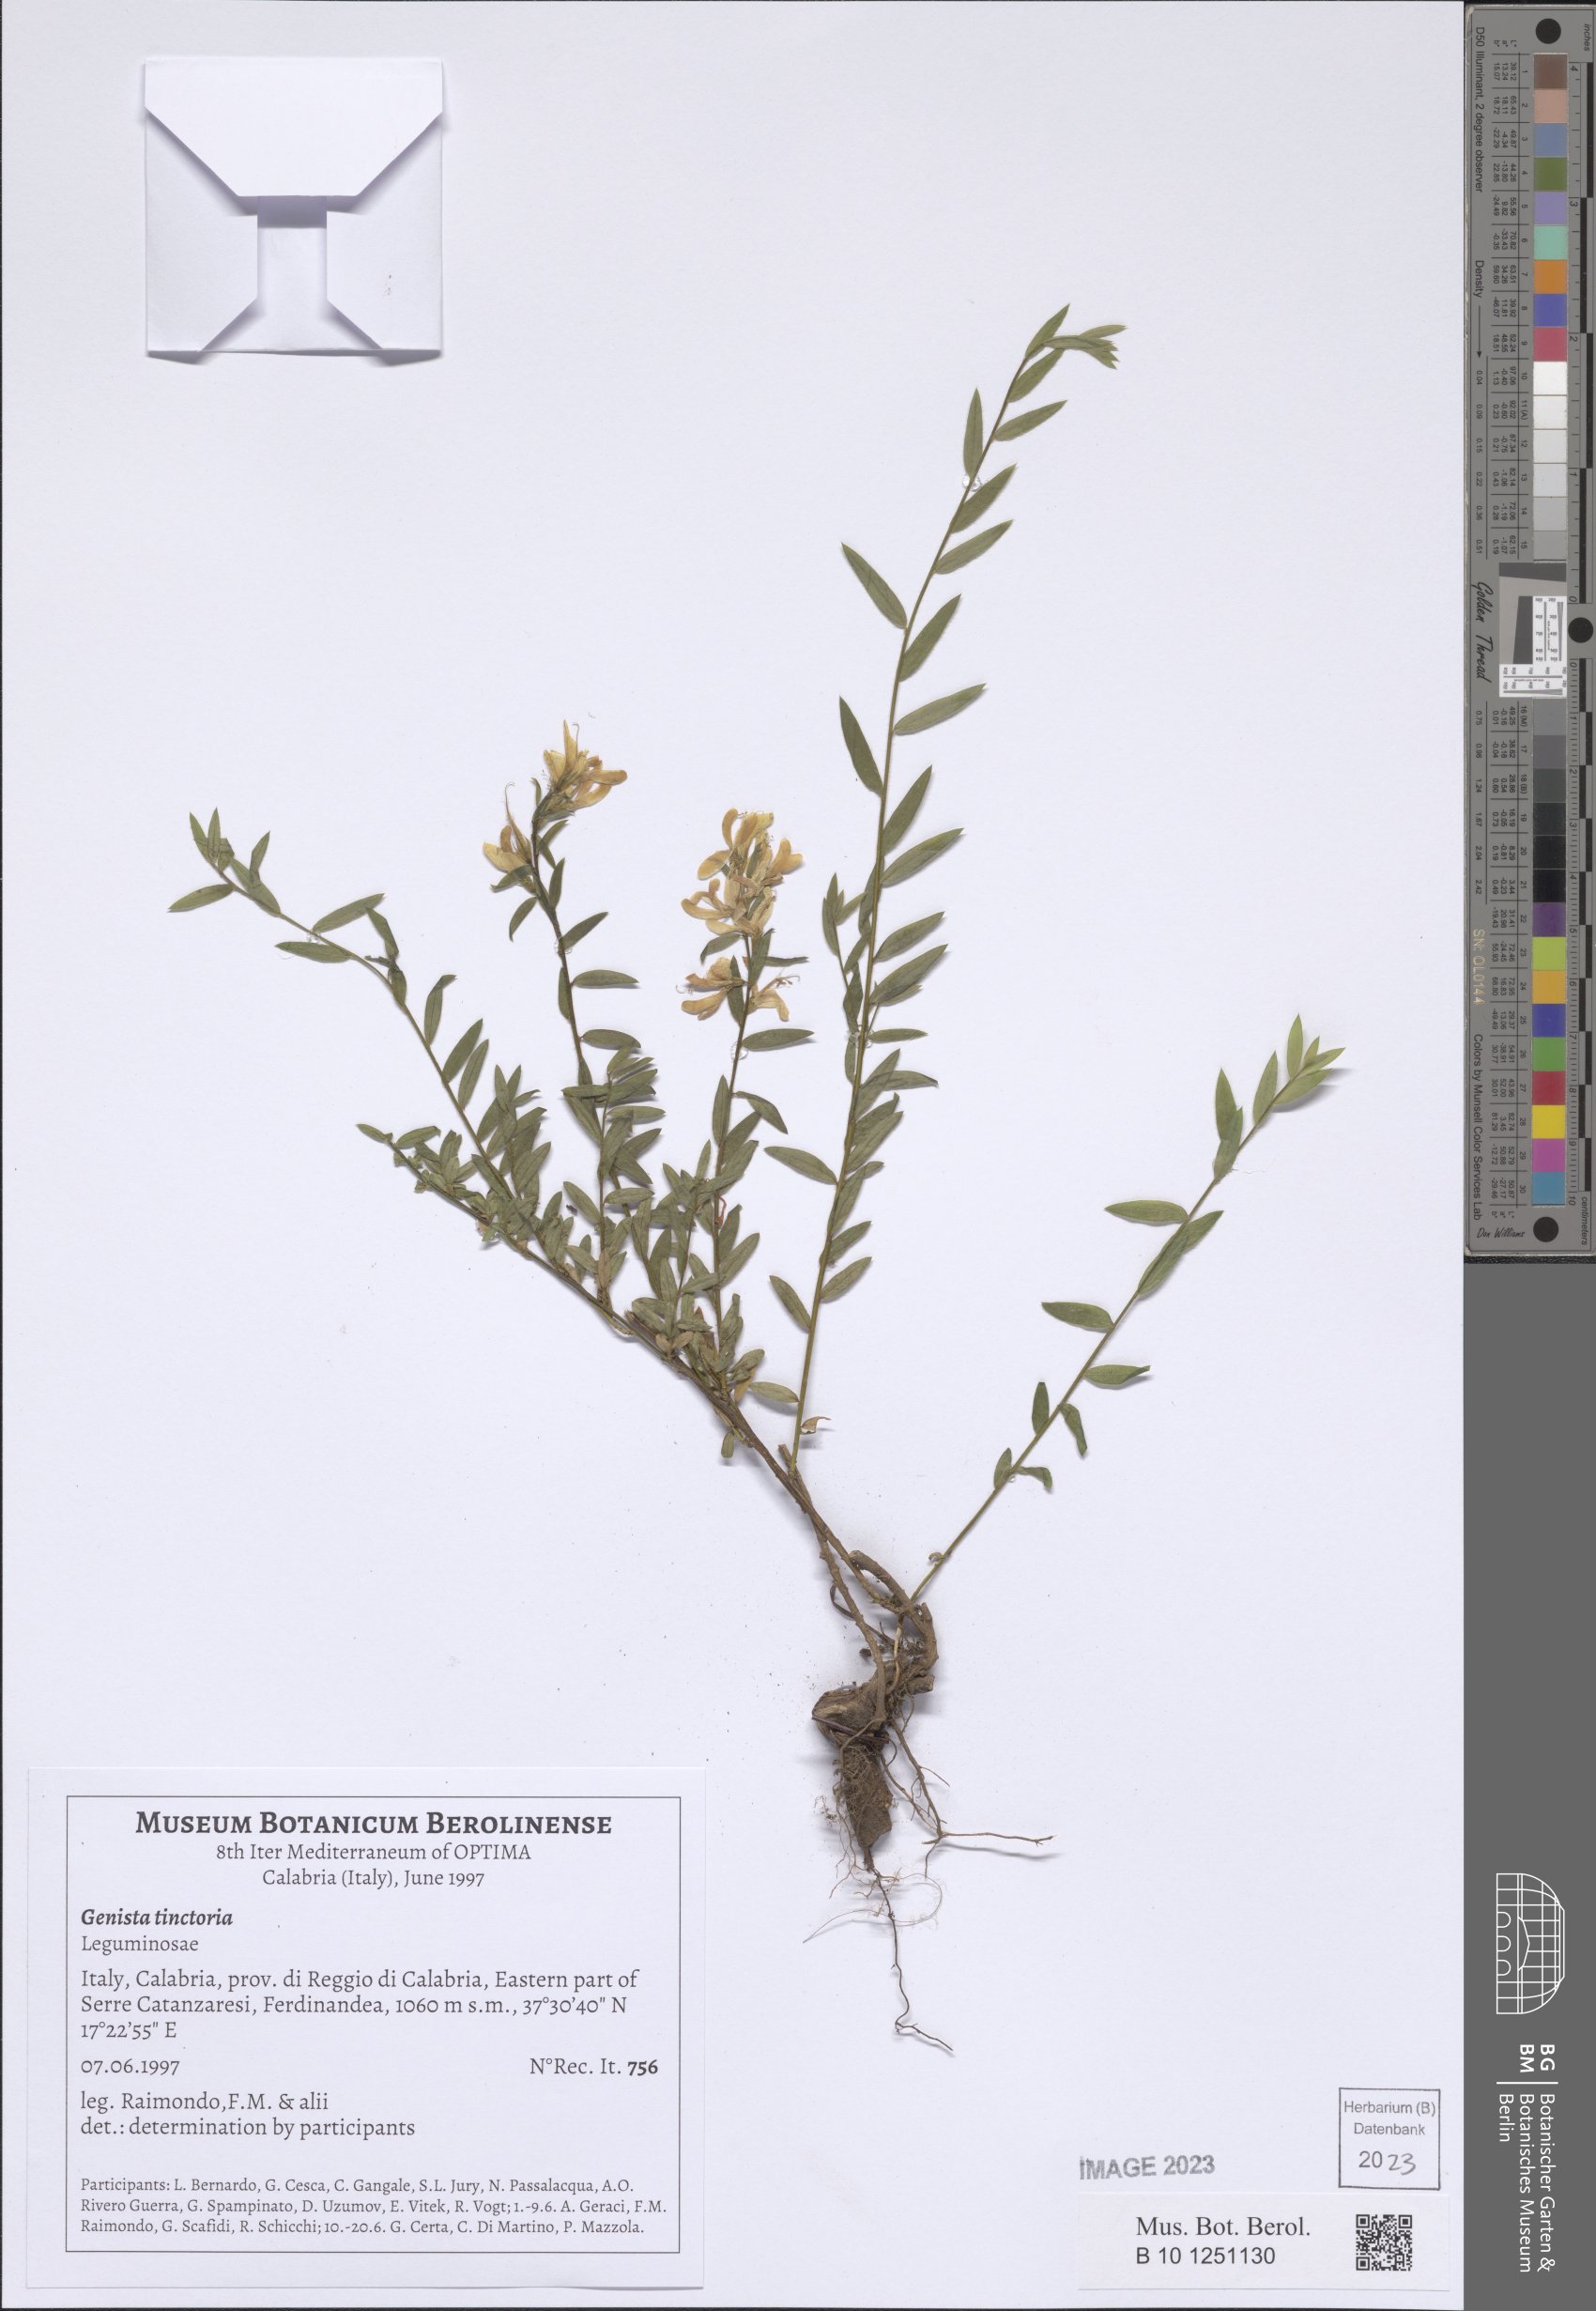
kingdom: Plantae
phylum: Tracheophyta
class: Magnoliopsida
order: Fabales
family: Fabaceae
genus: Genista
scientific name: Genista tinctoria
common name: Dyer's greenweed
